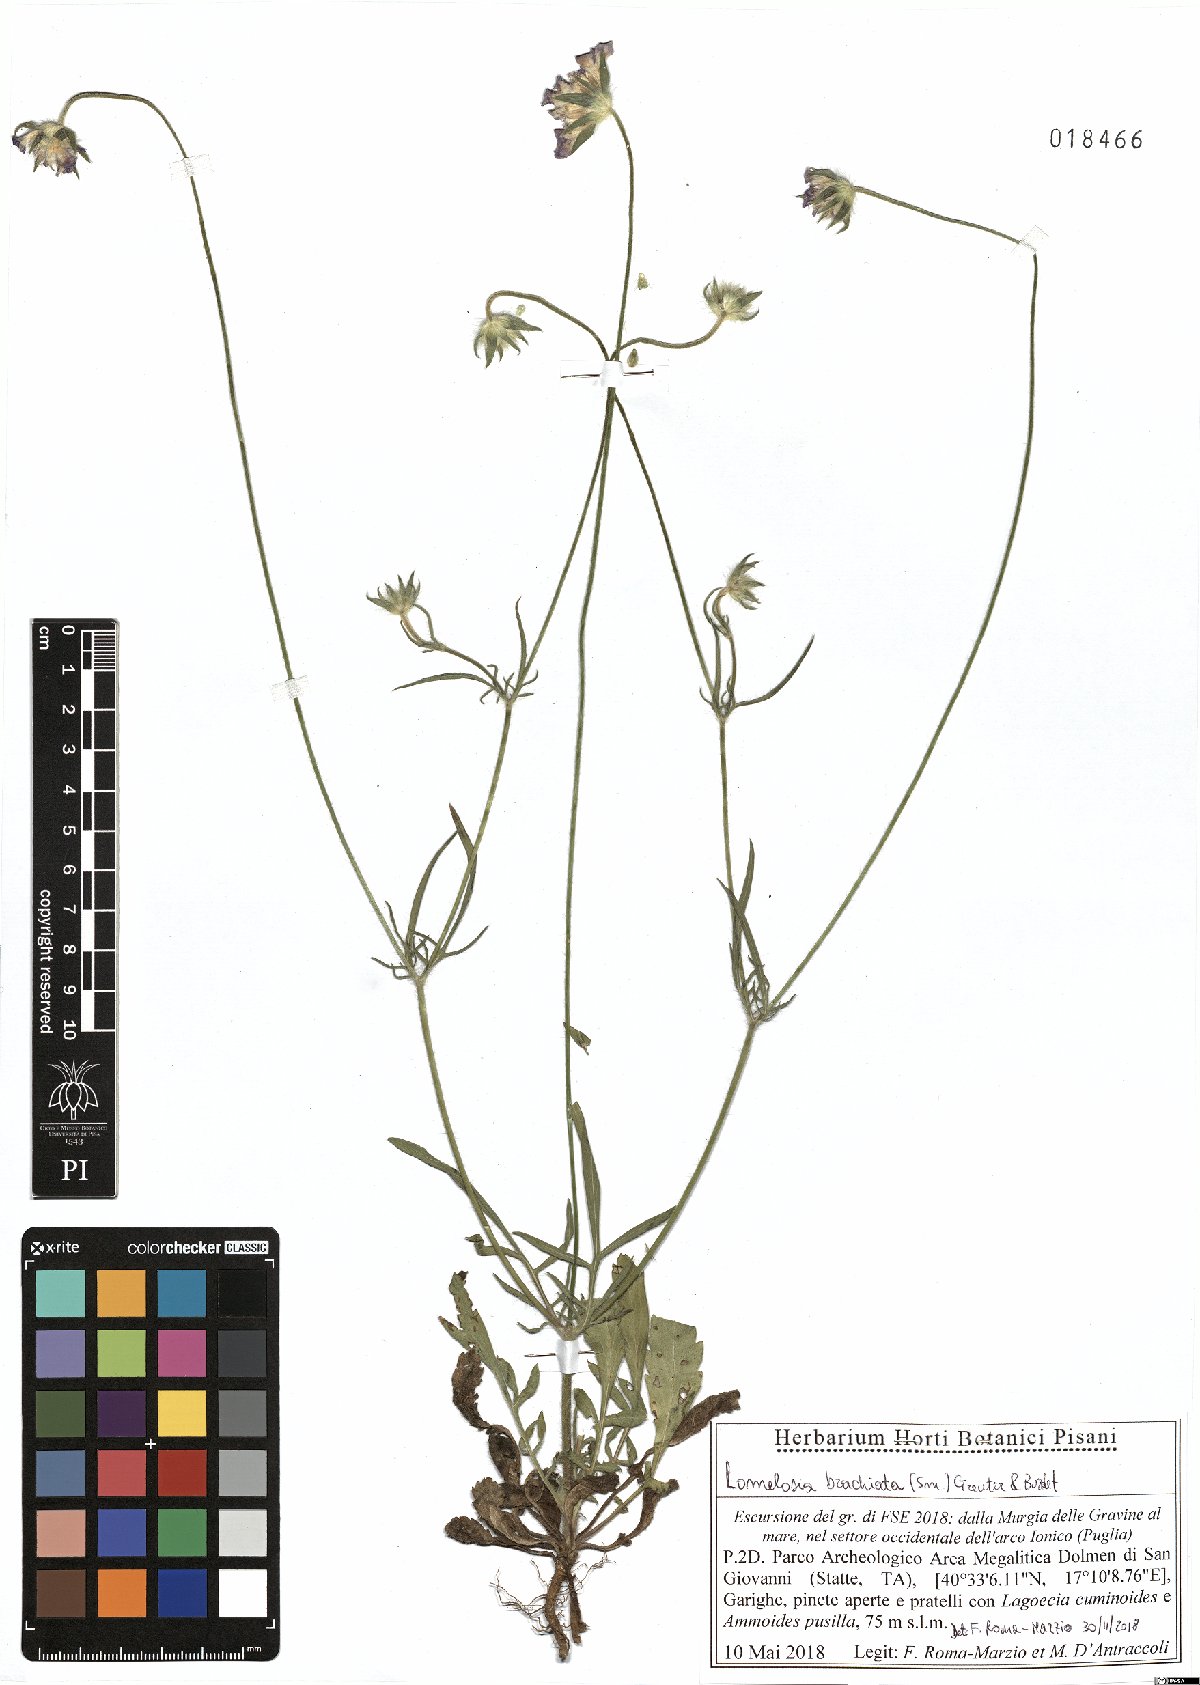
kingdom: Plantae
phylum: Tracheophyta
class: Magnoliopsida
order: Dipsacales
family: Caprifoliaceae
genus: Lomelosia
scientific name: Lomelosia brachiata
